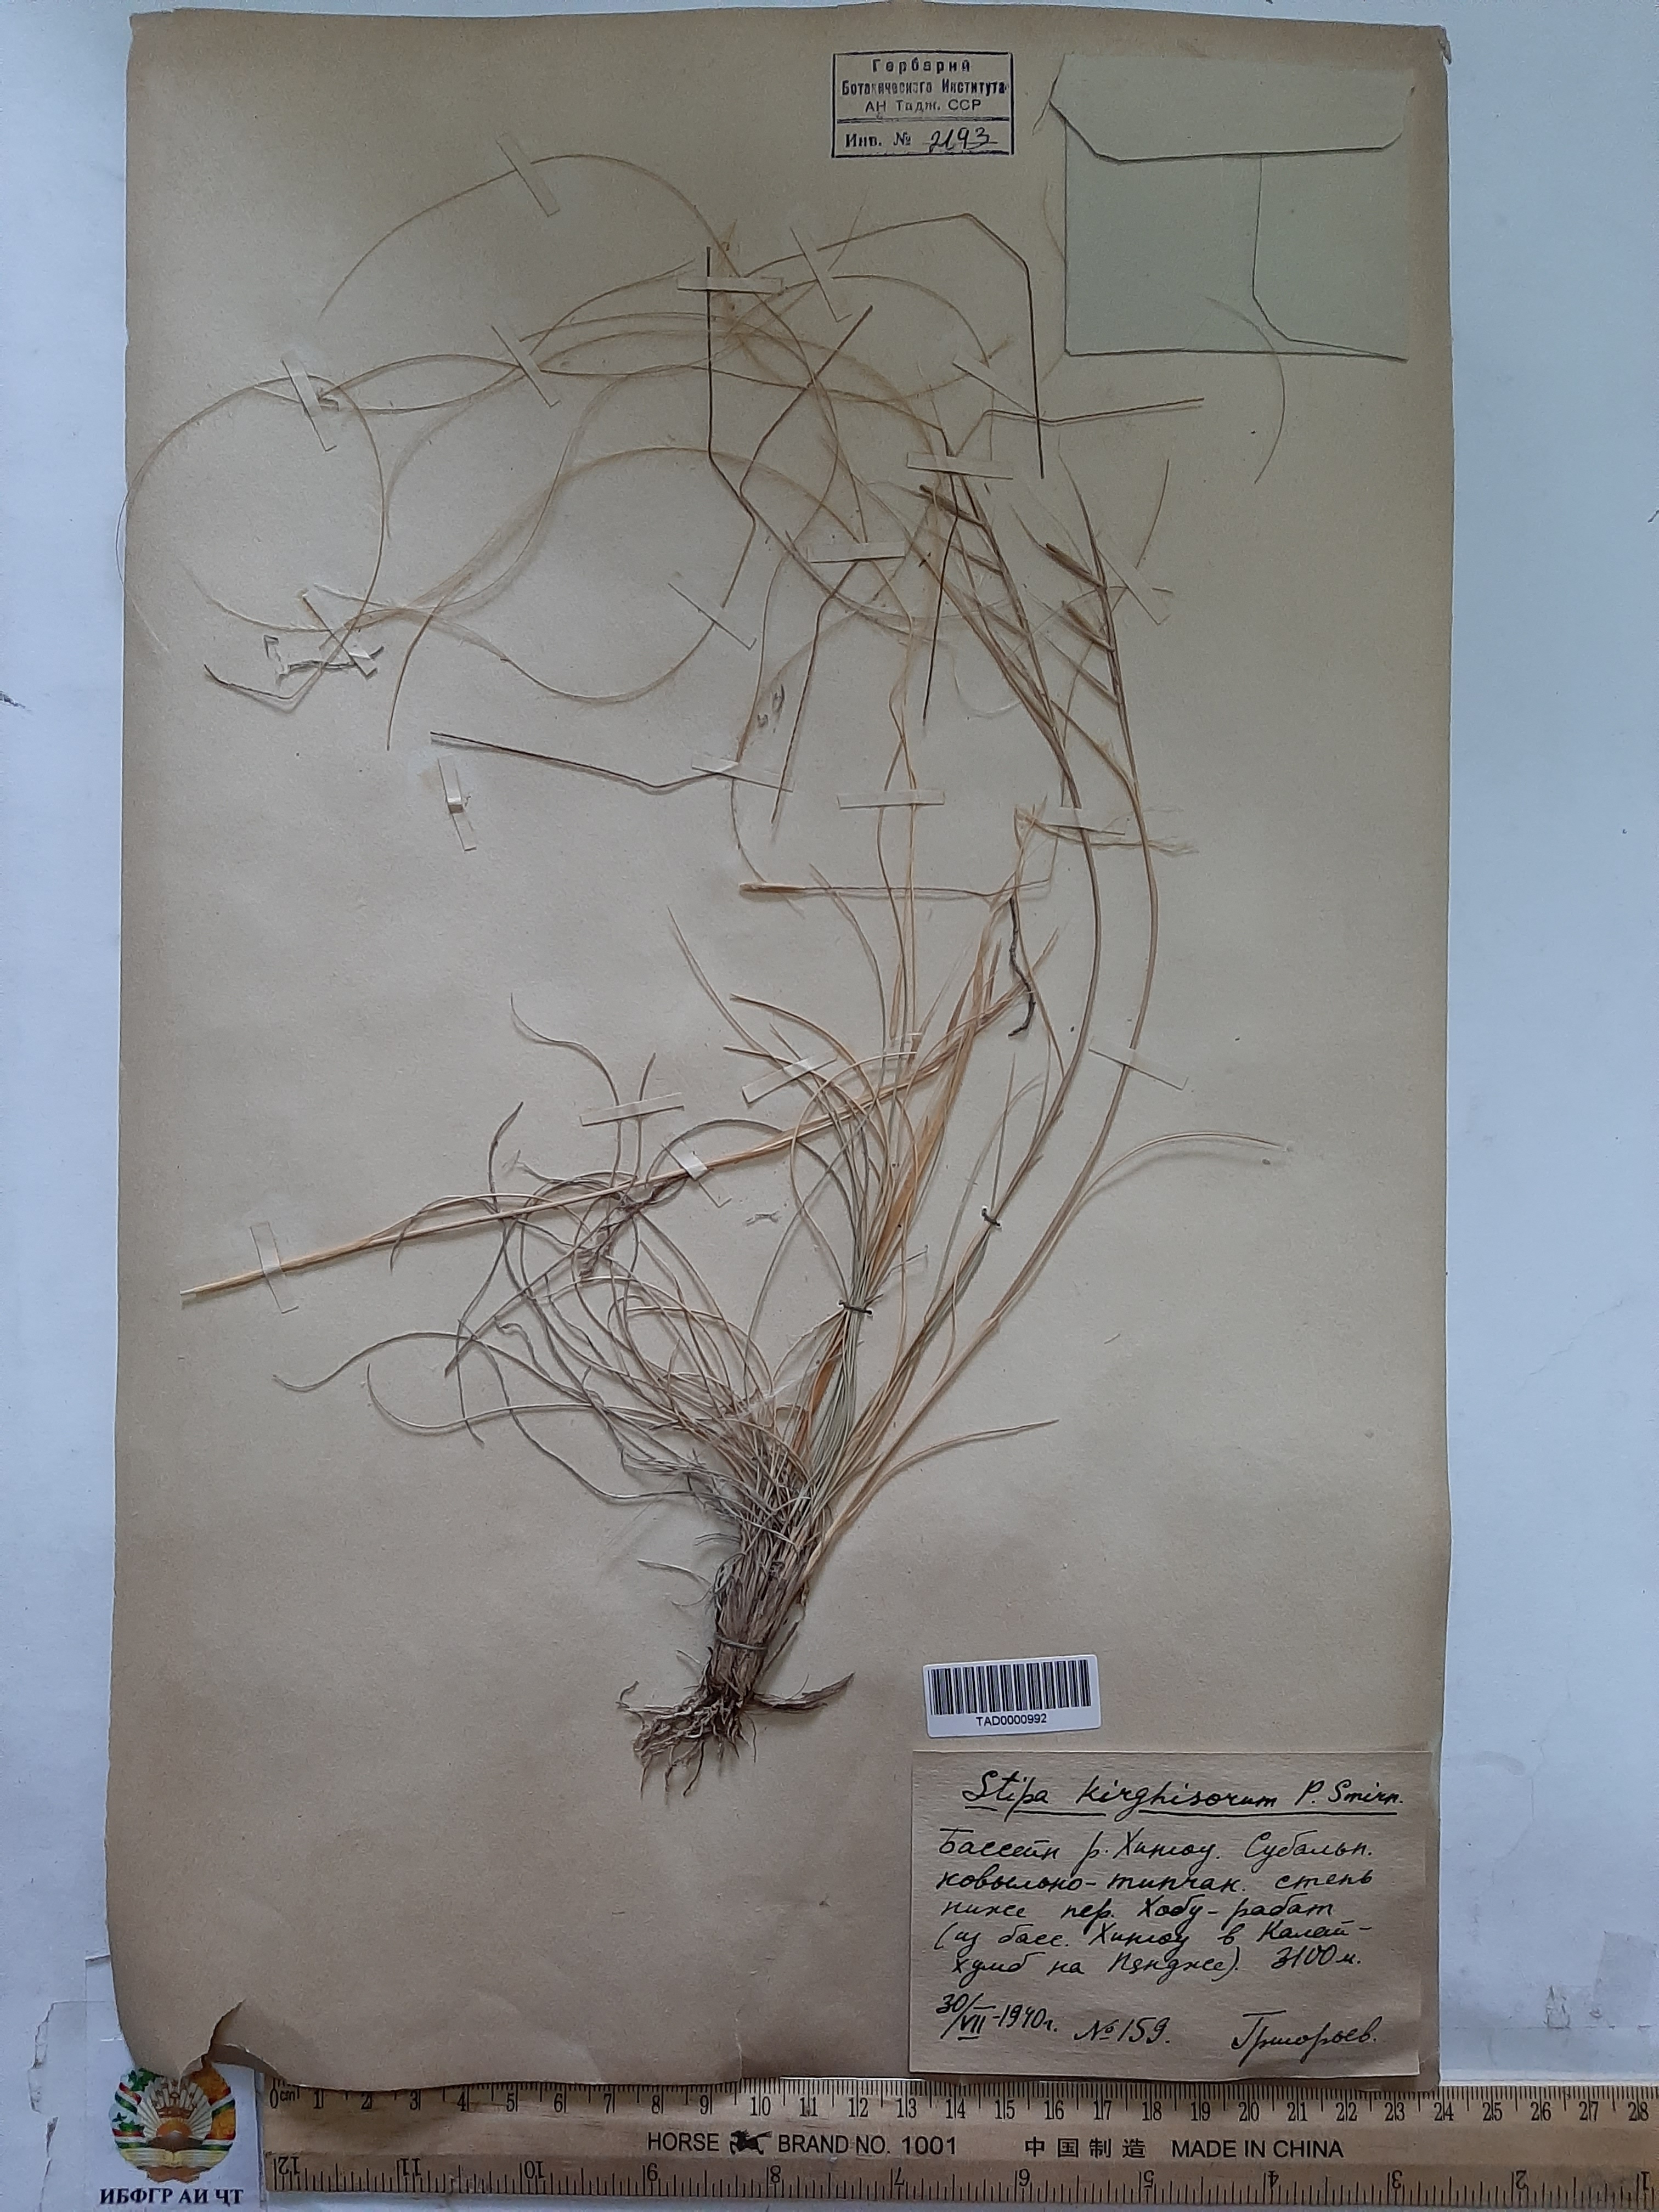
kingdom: Plantae
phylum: Tracheophyta
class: Liliopsida
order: Poales
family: Poaceae
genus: Stipa
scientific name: Stipa kirghisorum
